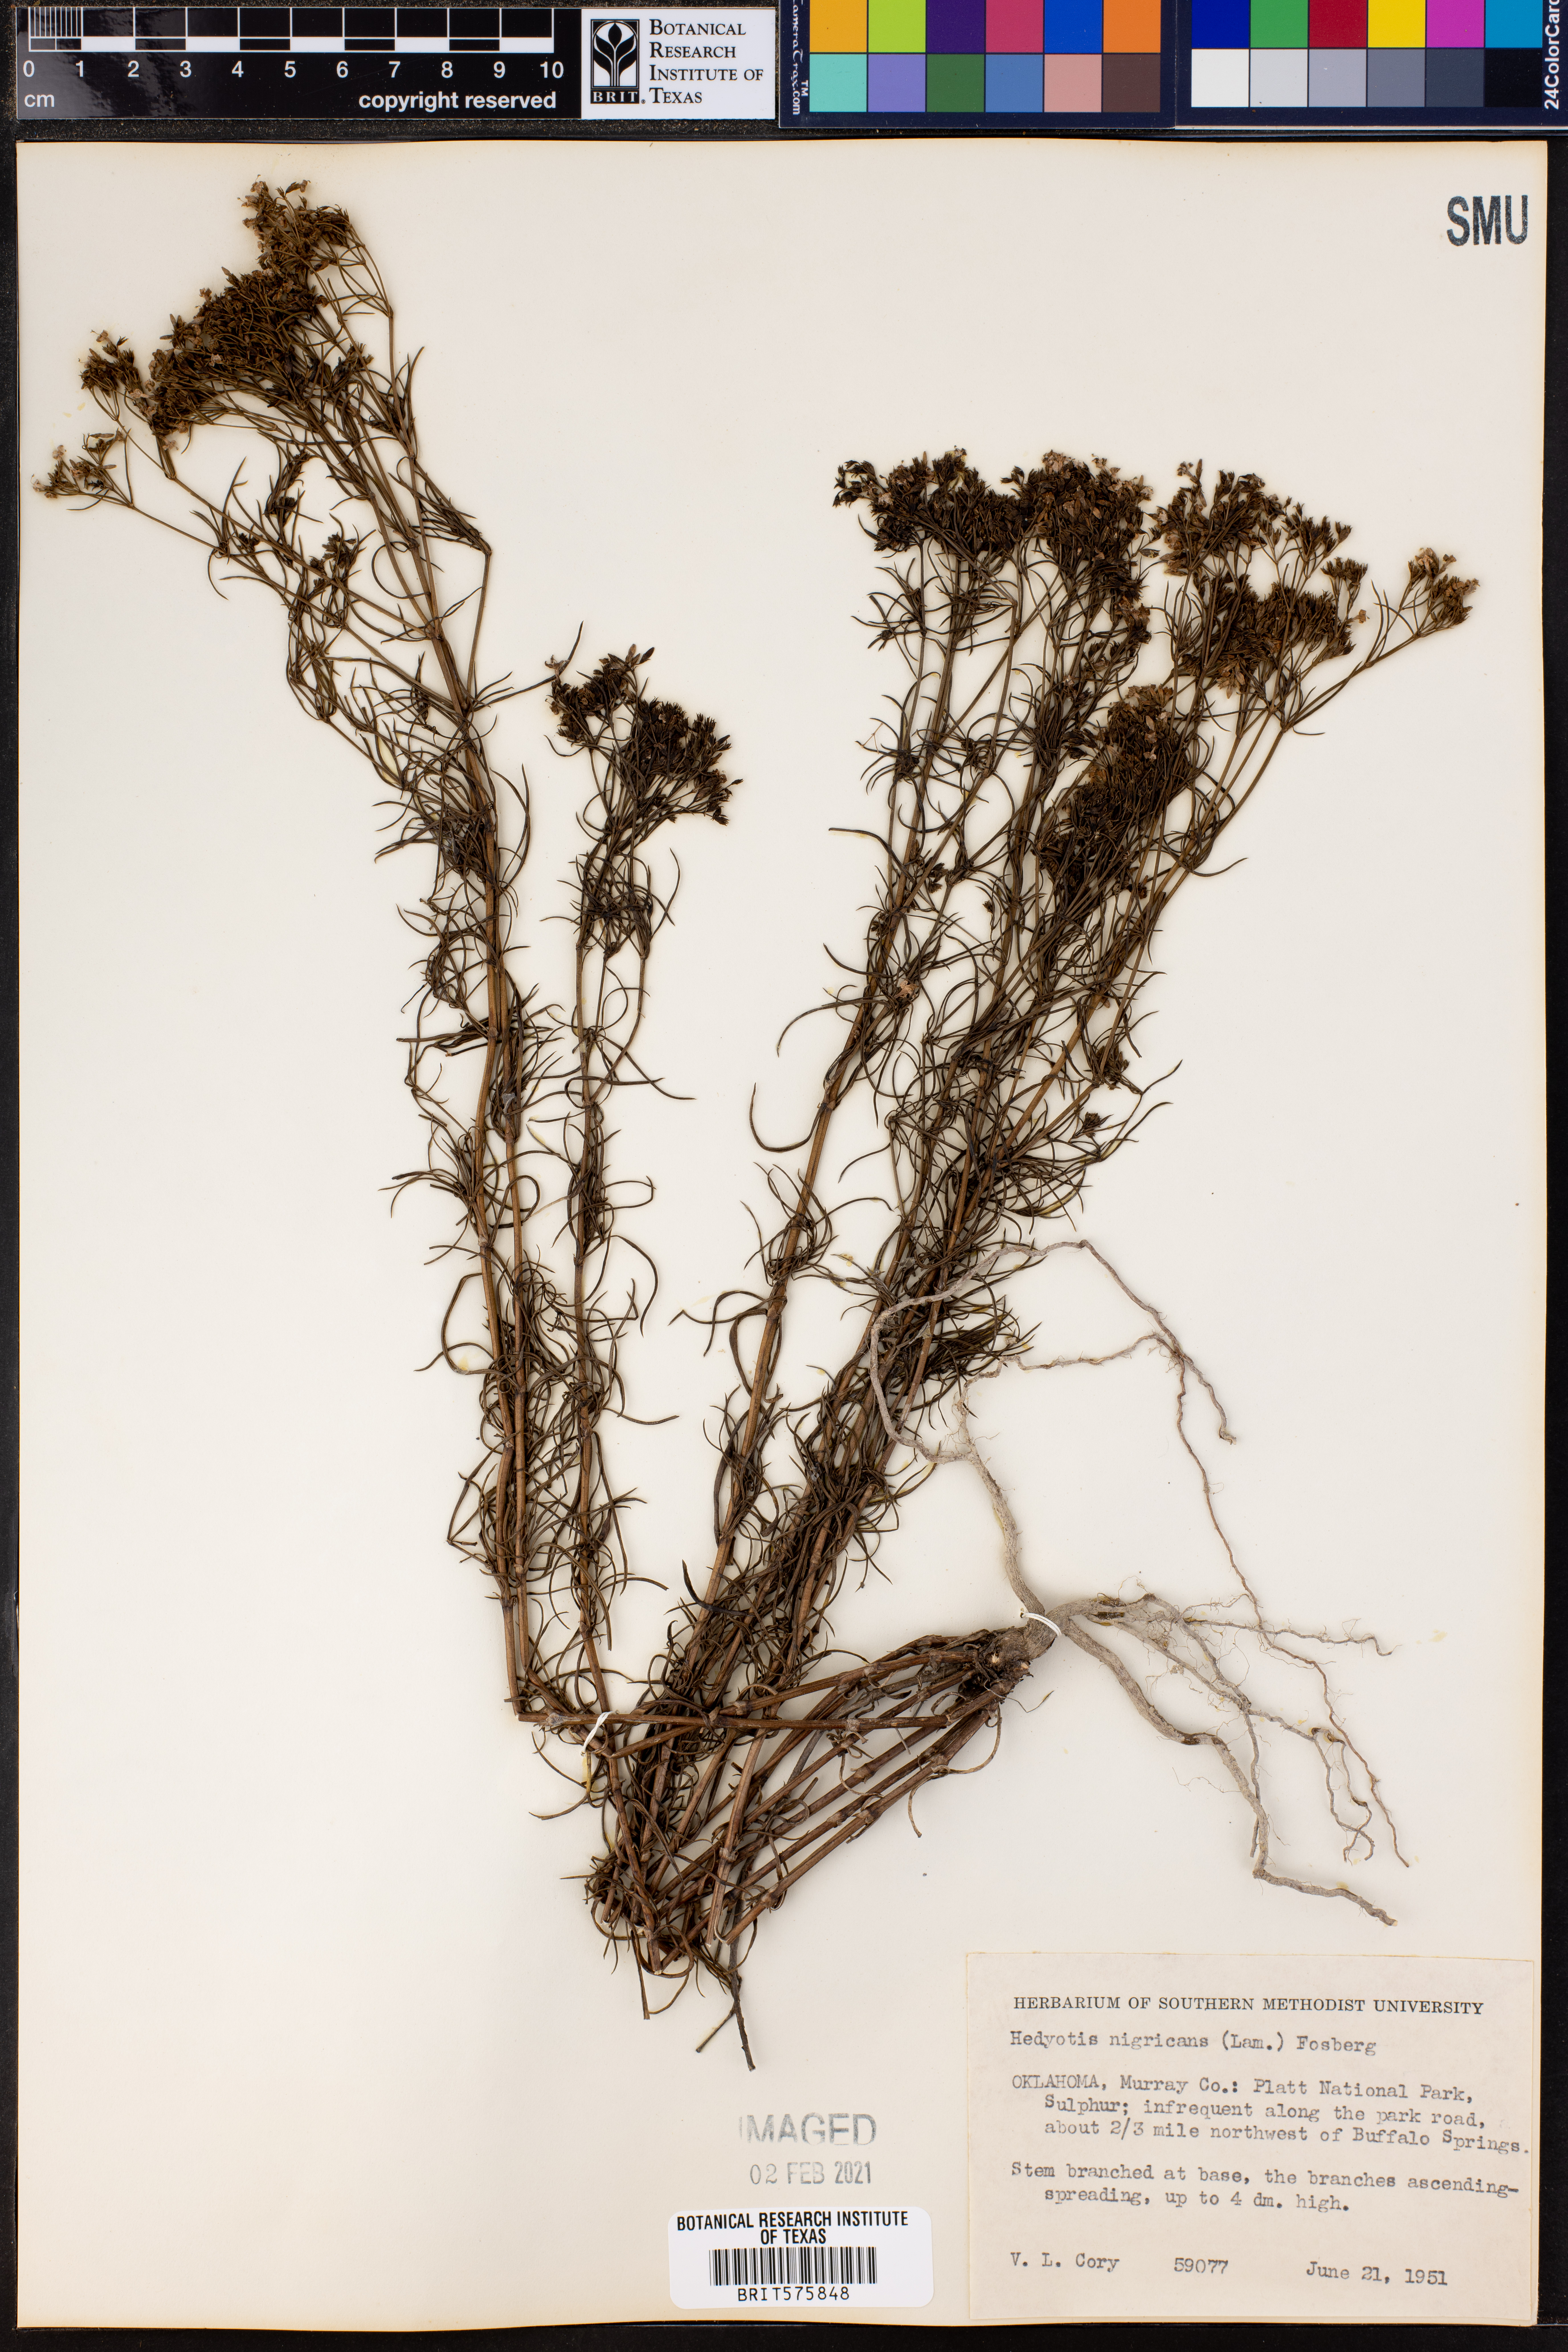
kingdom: Plantae
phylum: Tracheophyta
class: Magnoliopsida
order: Gentianales
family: Rubiaceae
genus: Stenaria
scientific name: Stenaria nigricans
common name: Diamondflowers
